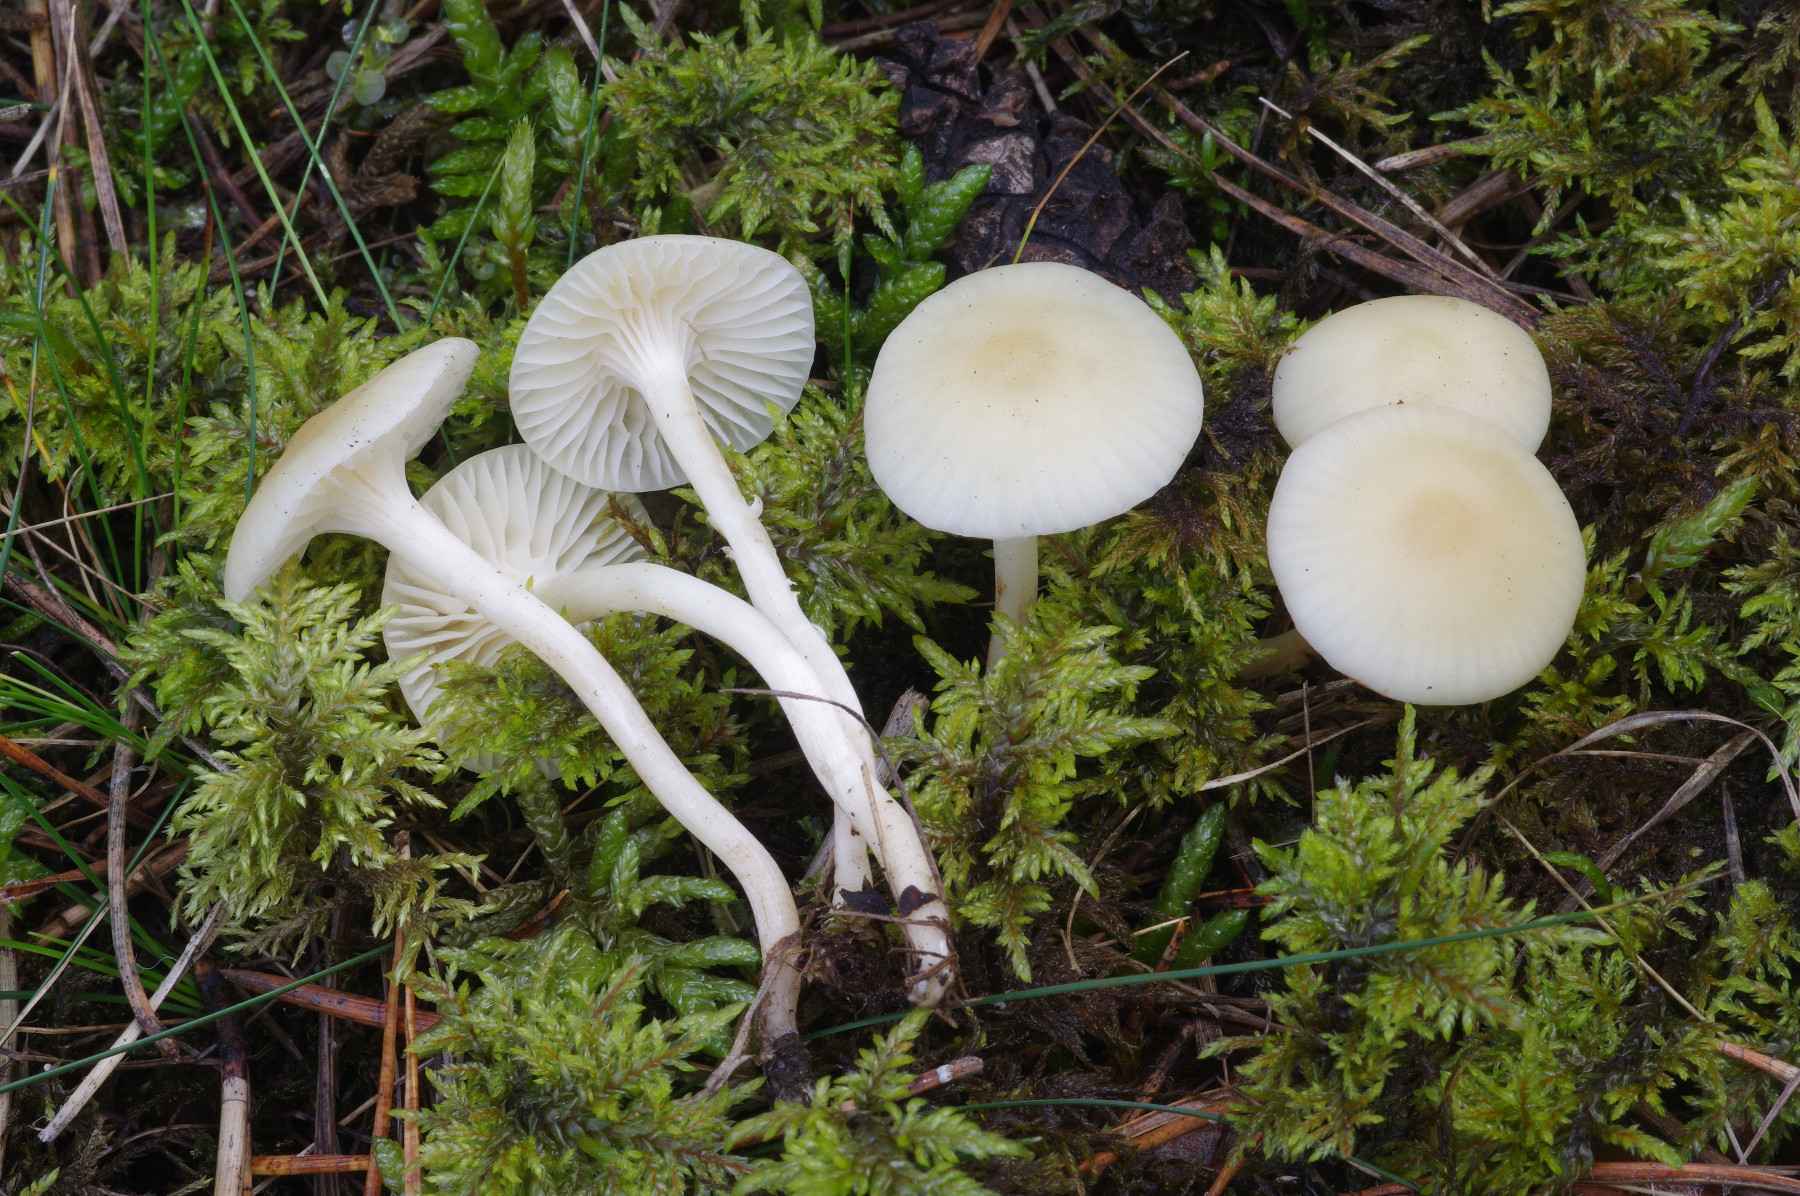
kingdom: Fungi
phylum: Basidiomycota
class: Agaricomycetes
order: Agaricales
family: Hygrophoraceae
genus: Cuphophyllus
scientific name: Cuphophyllus russocoriaceus
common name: ruslæder-vokshat
